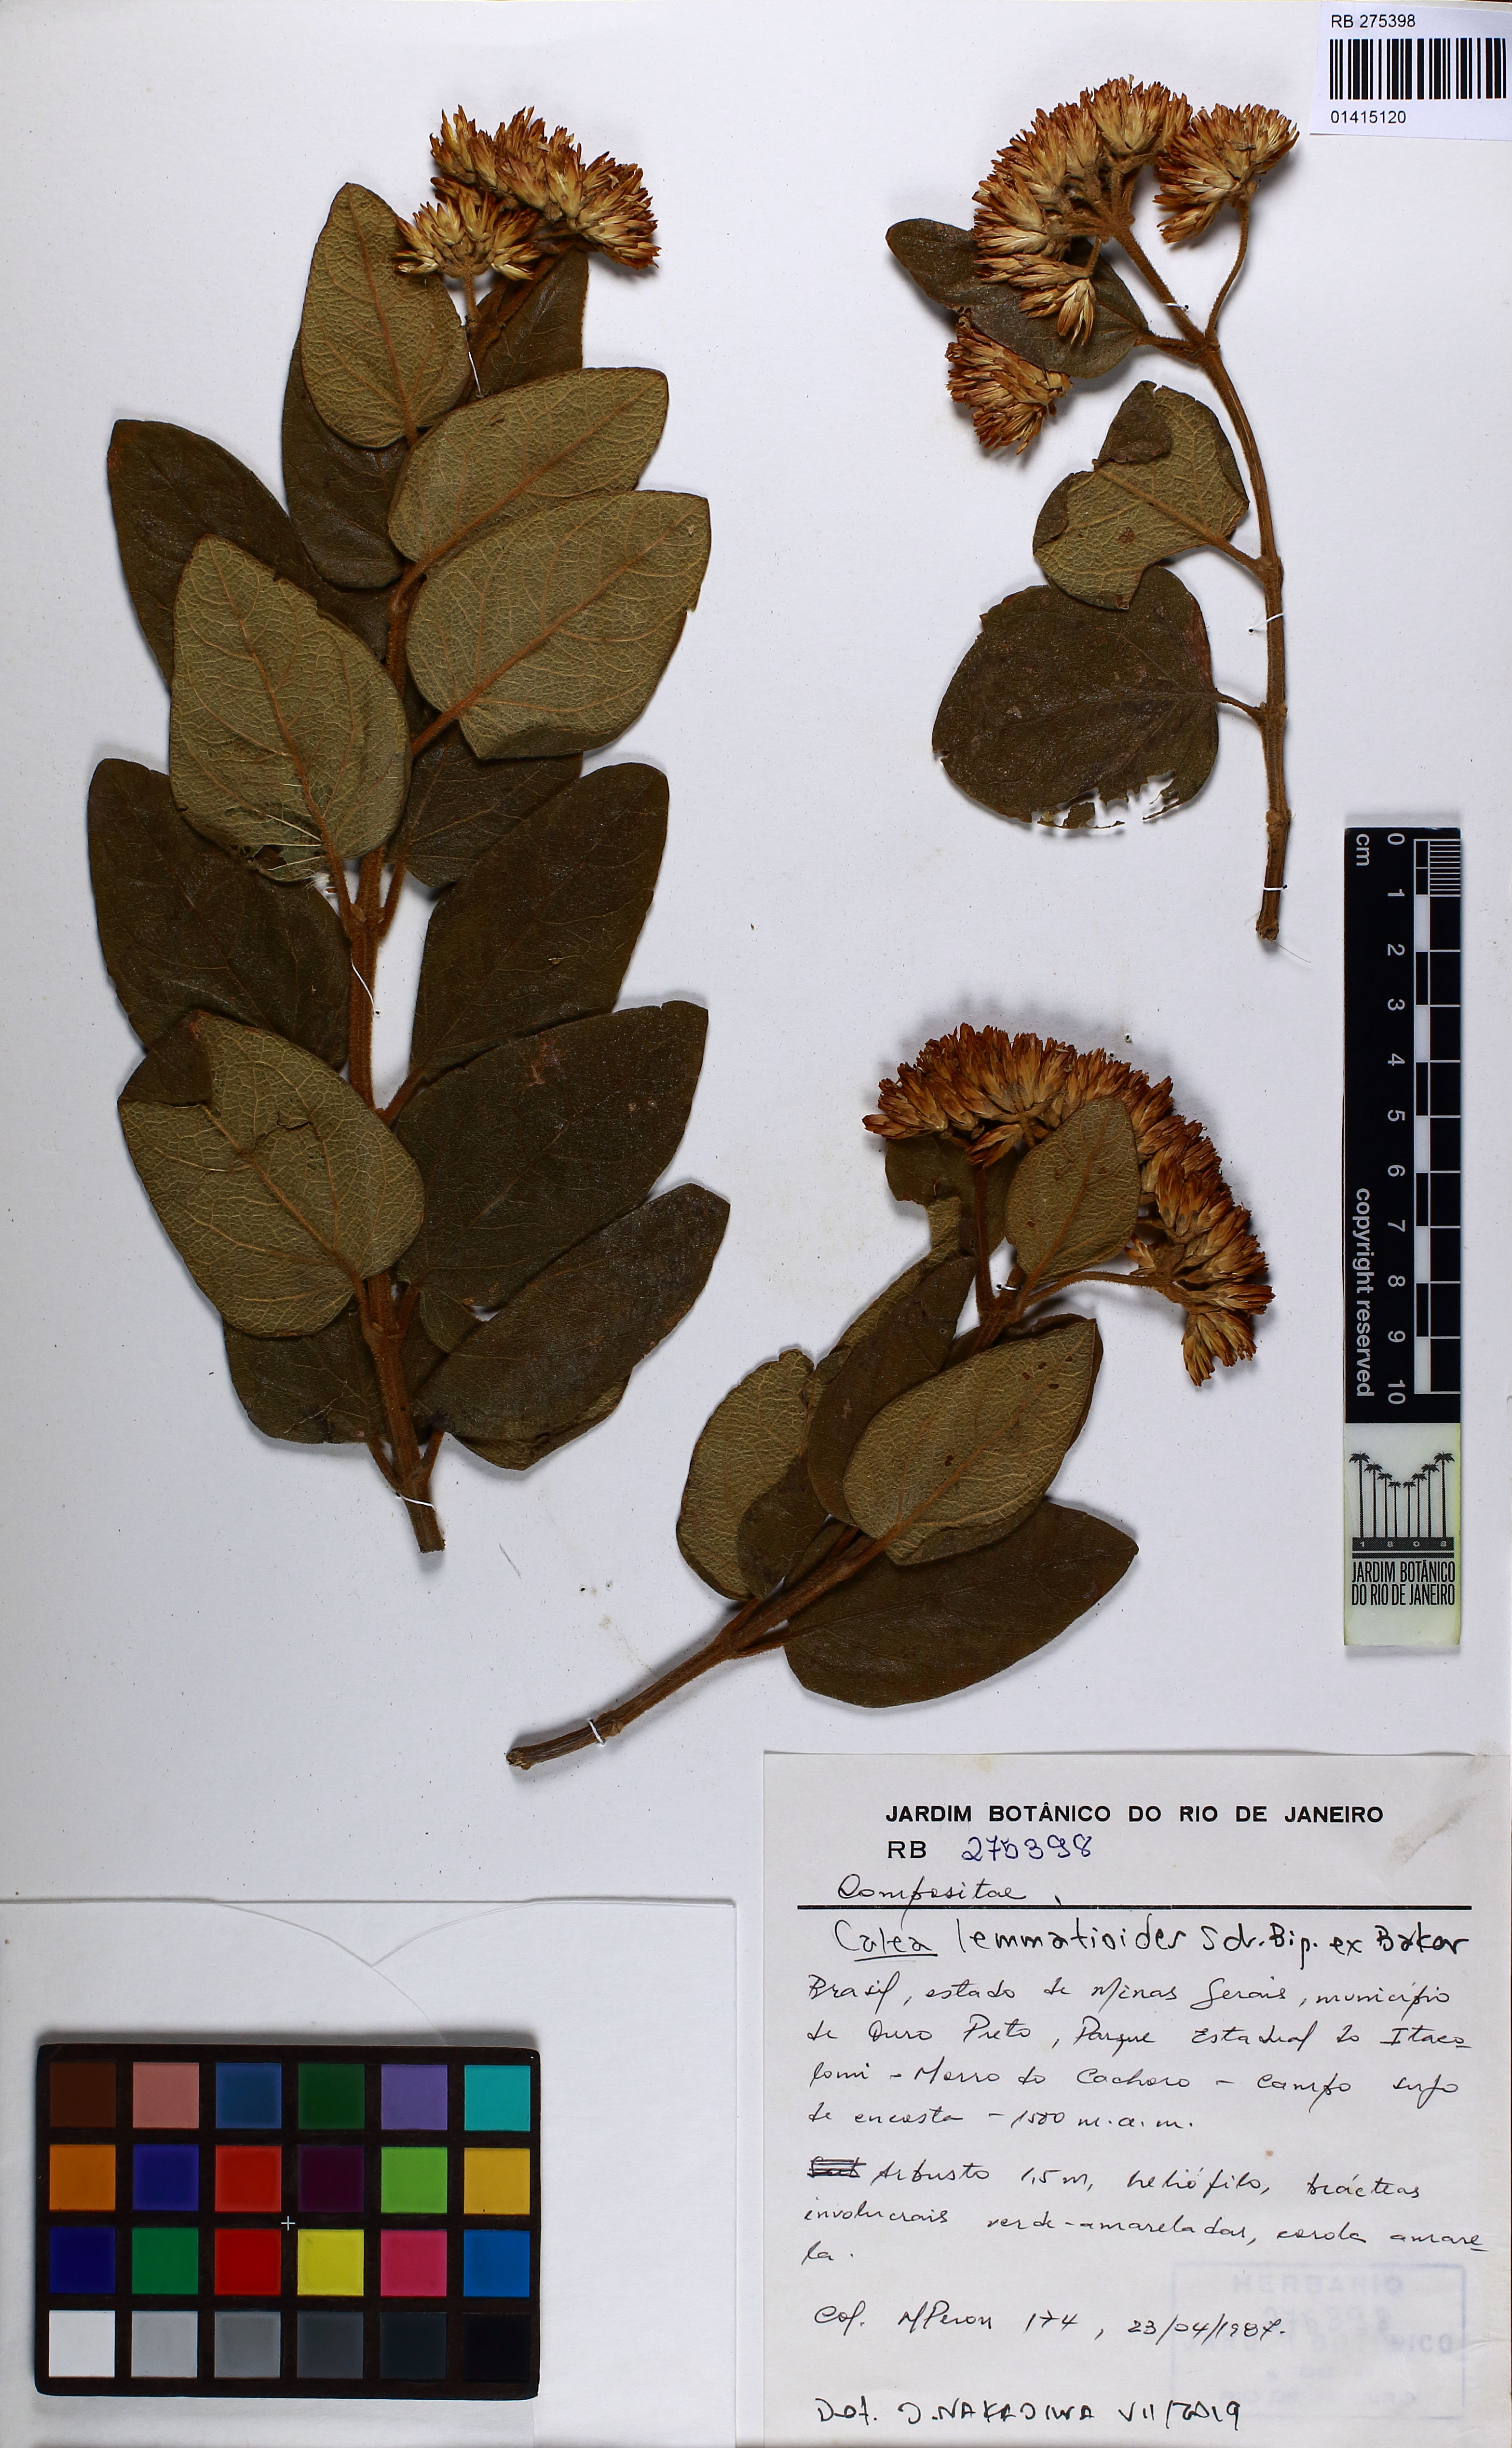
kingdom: Plantae
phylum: Tracheophyta
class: Magnoliopsida
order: Asterales
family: Asteraceae
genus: Calea
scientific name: Calea lemmatioides
